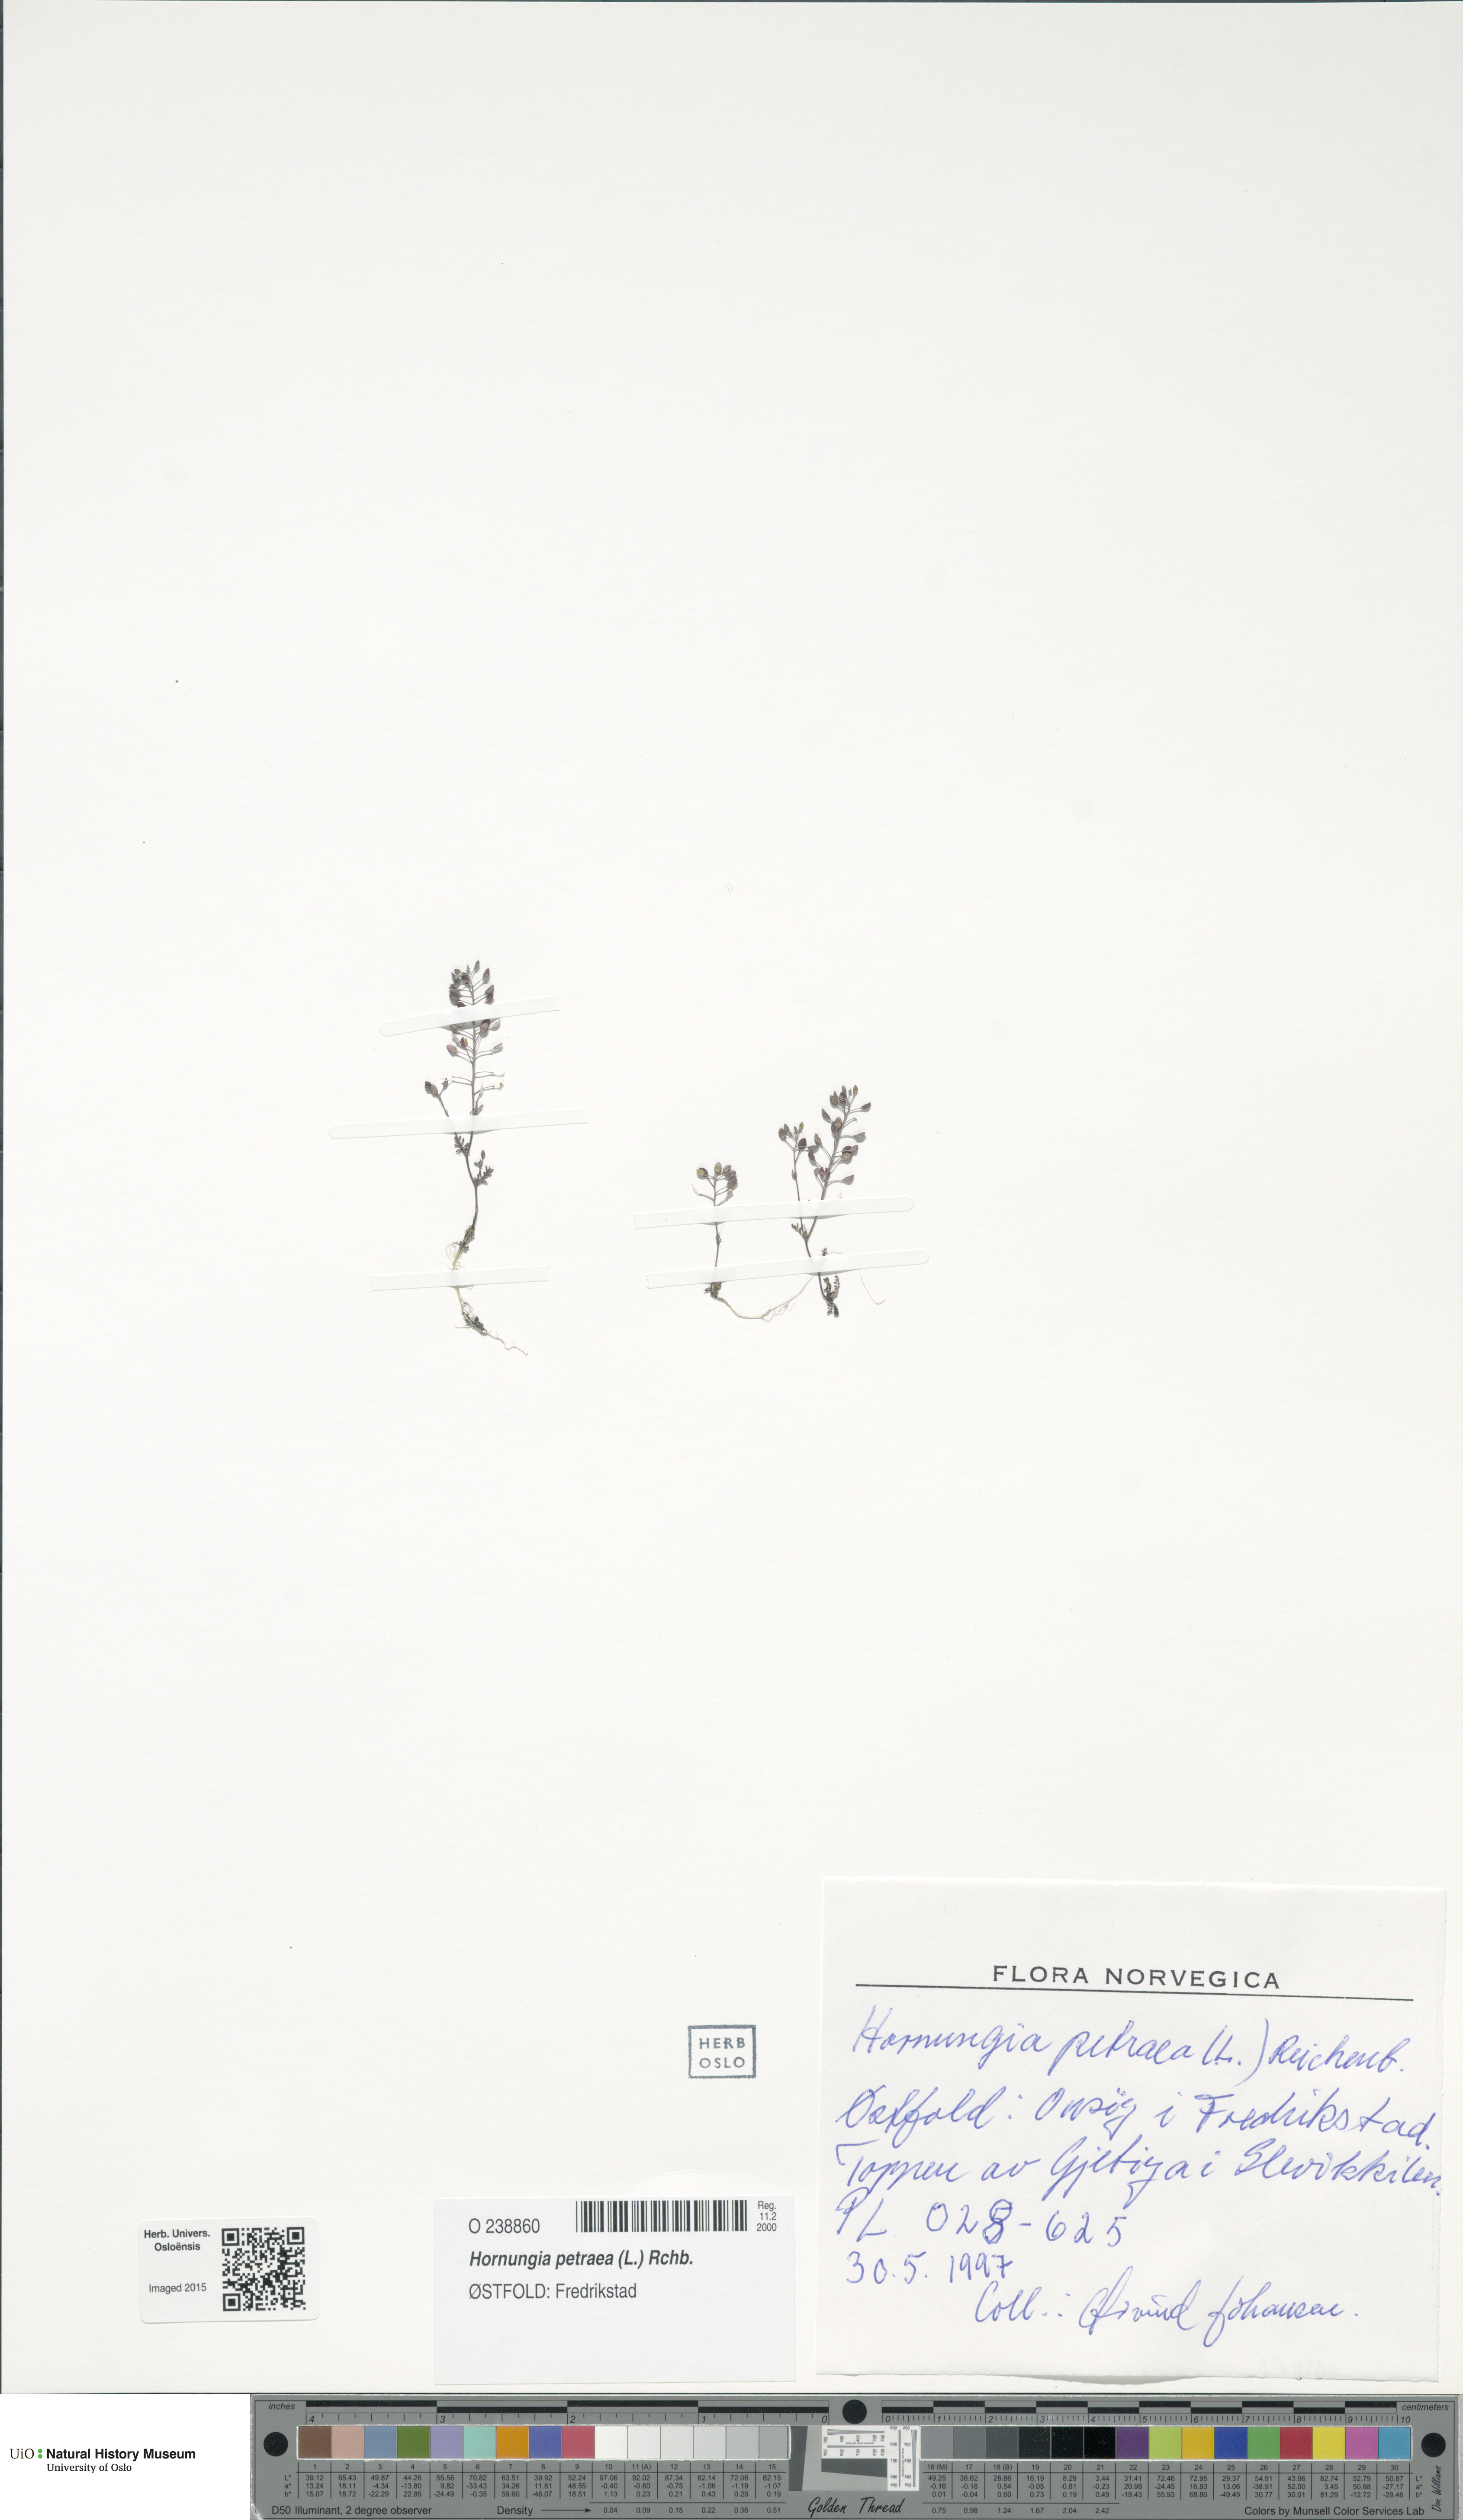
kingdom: Plantae
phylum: Tracheophyta
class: Magnoliopsida
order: Brassicales
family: Brassicaceae
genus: Hornungia
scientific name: Hornungia petraea
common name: Hutchinsia
